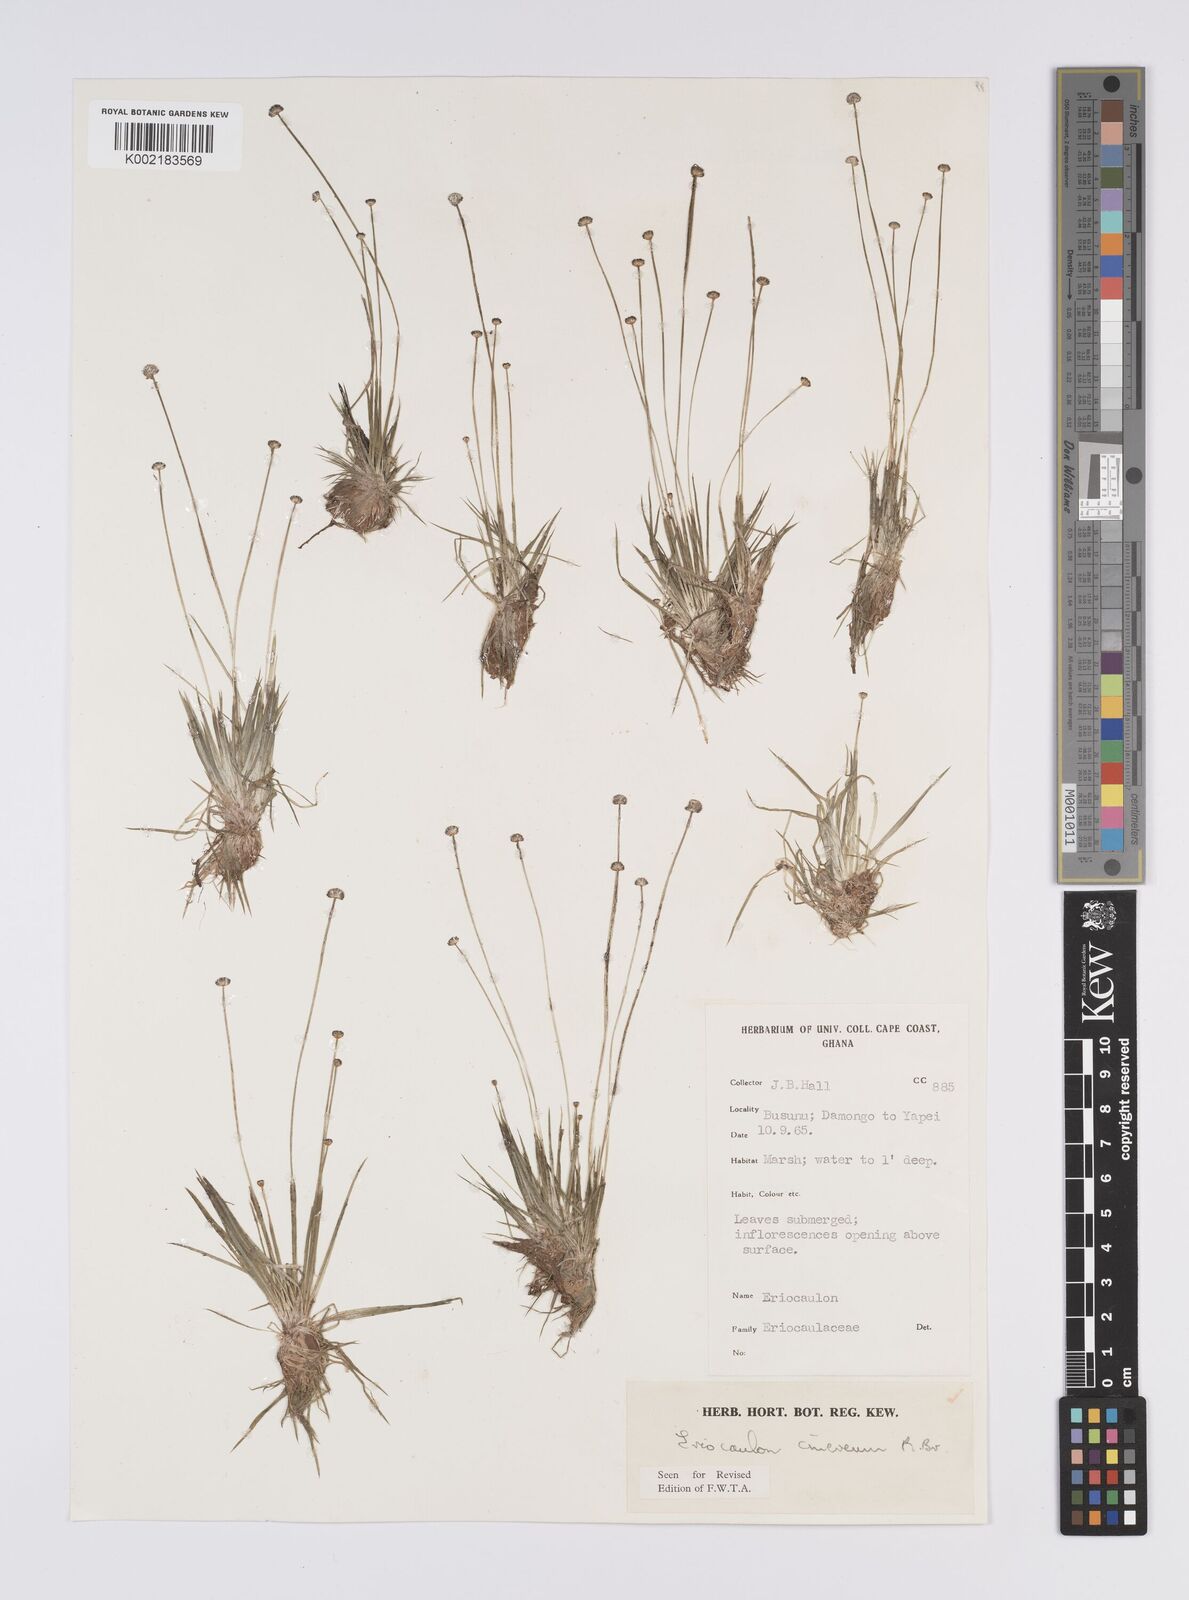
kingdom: Plantae
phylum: Tracheophyta
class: Liliopsida
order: Poales
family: Eriocaulaceae
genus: Eriocaulon
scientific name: Eriocaulon cinereum
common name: Ashy pipewort
